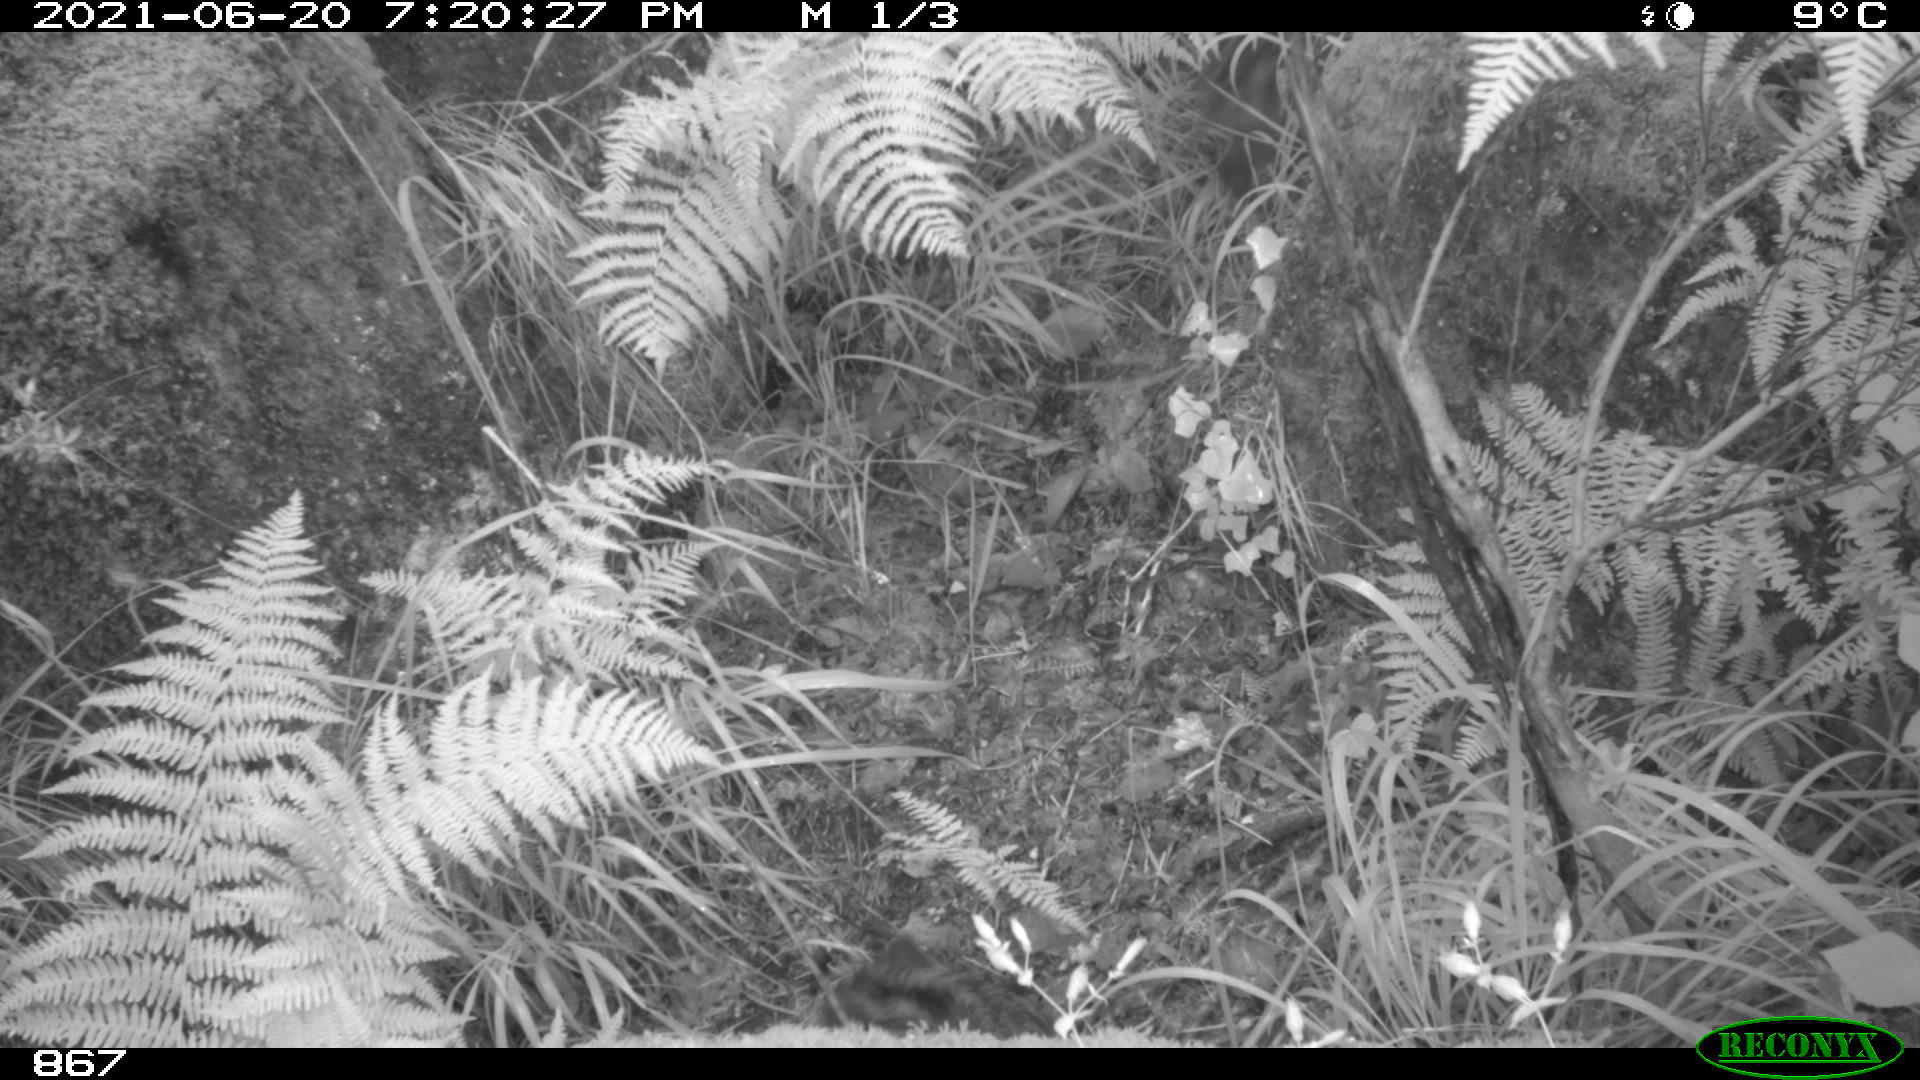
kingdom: Animalia
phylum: Chordata
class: Mammalia
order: Artiodactyla
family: Suidae
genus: Sus
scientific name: Sus scrofa
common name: Wild boar
